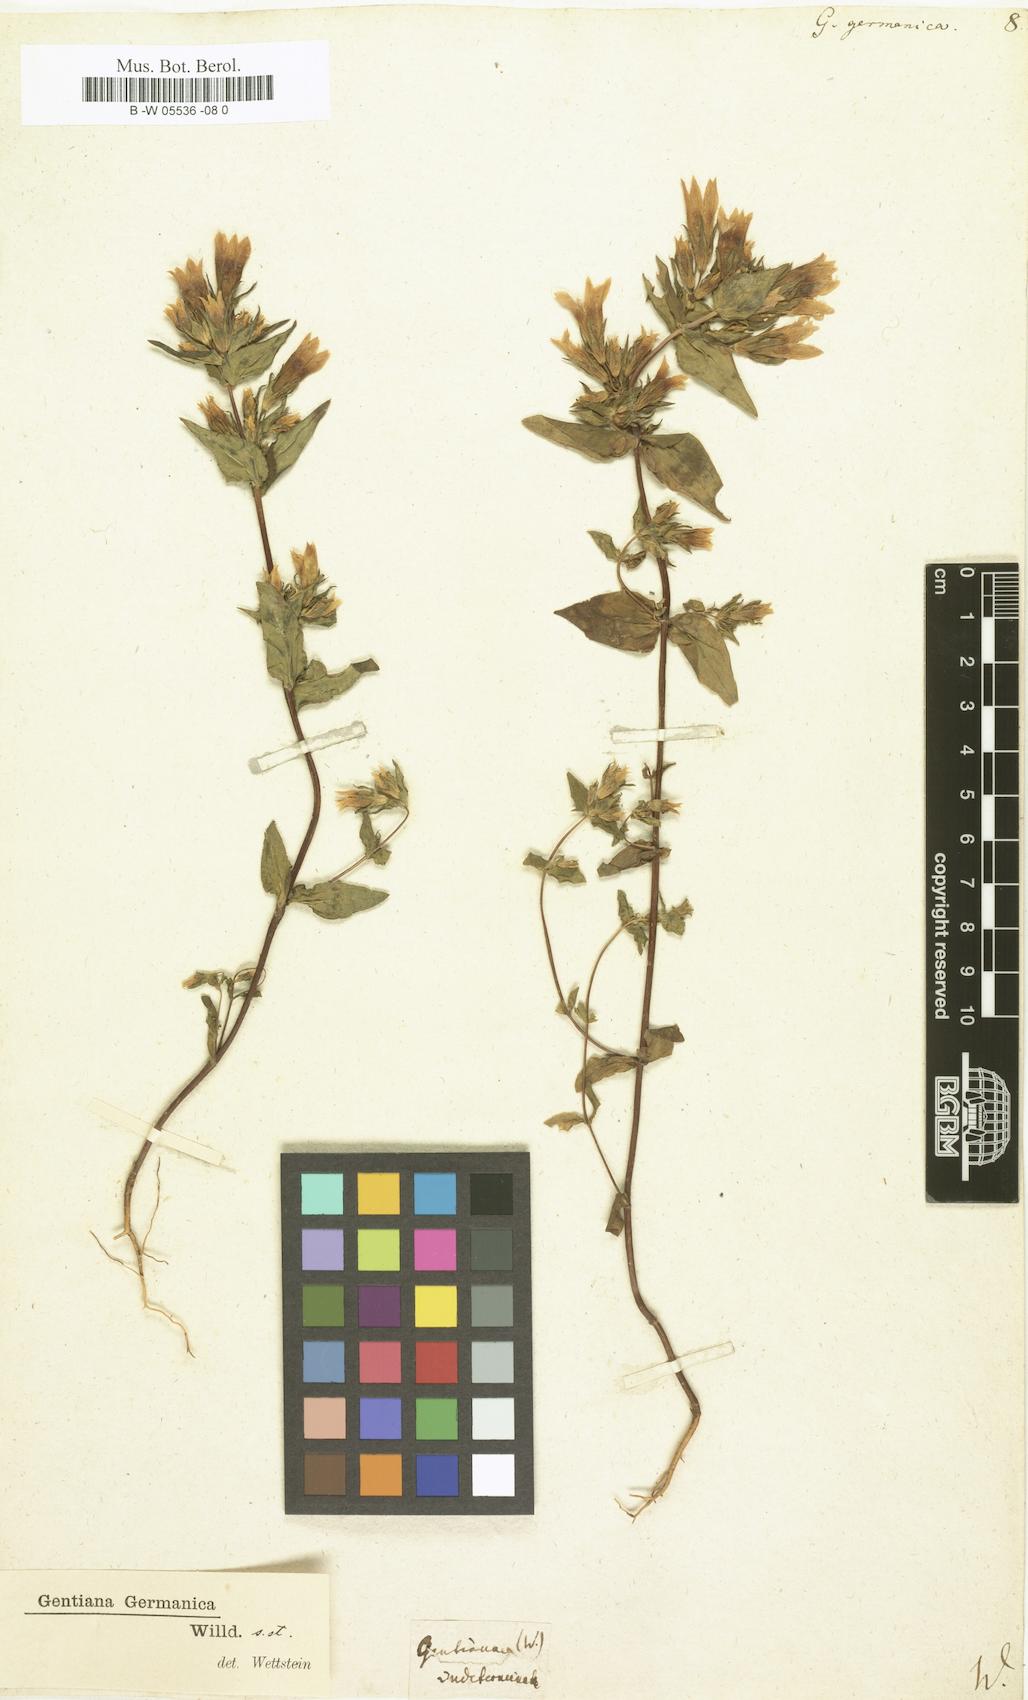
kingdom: Plantae
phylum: Tracheophyta
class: Magnoliopsida
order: Gentianales
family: Gentianaceae
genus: Gentianella
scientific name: Gentianella
